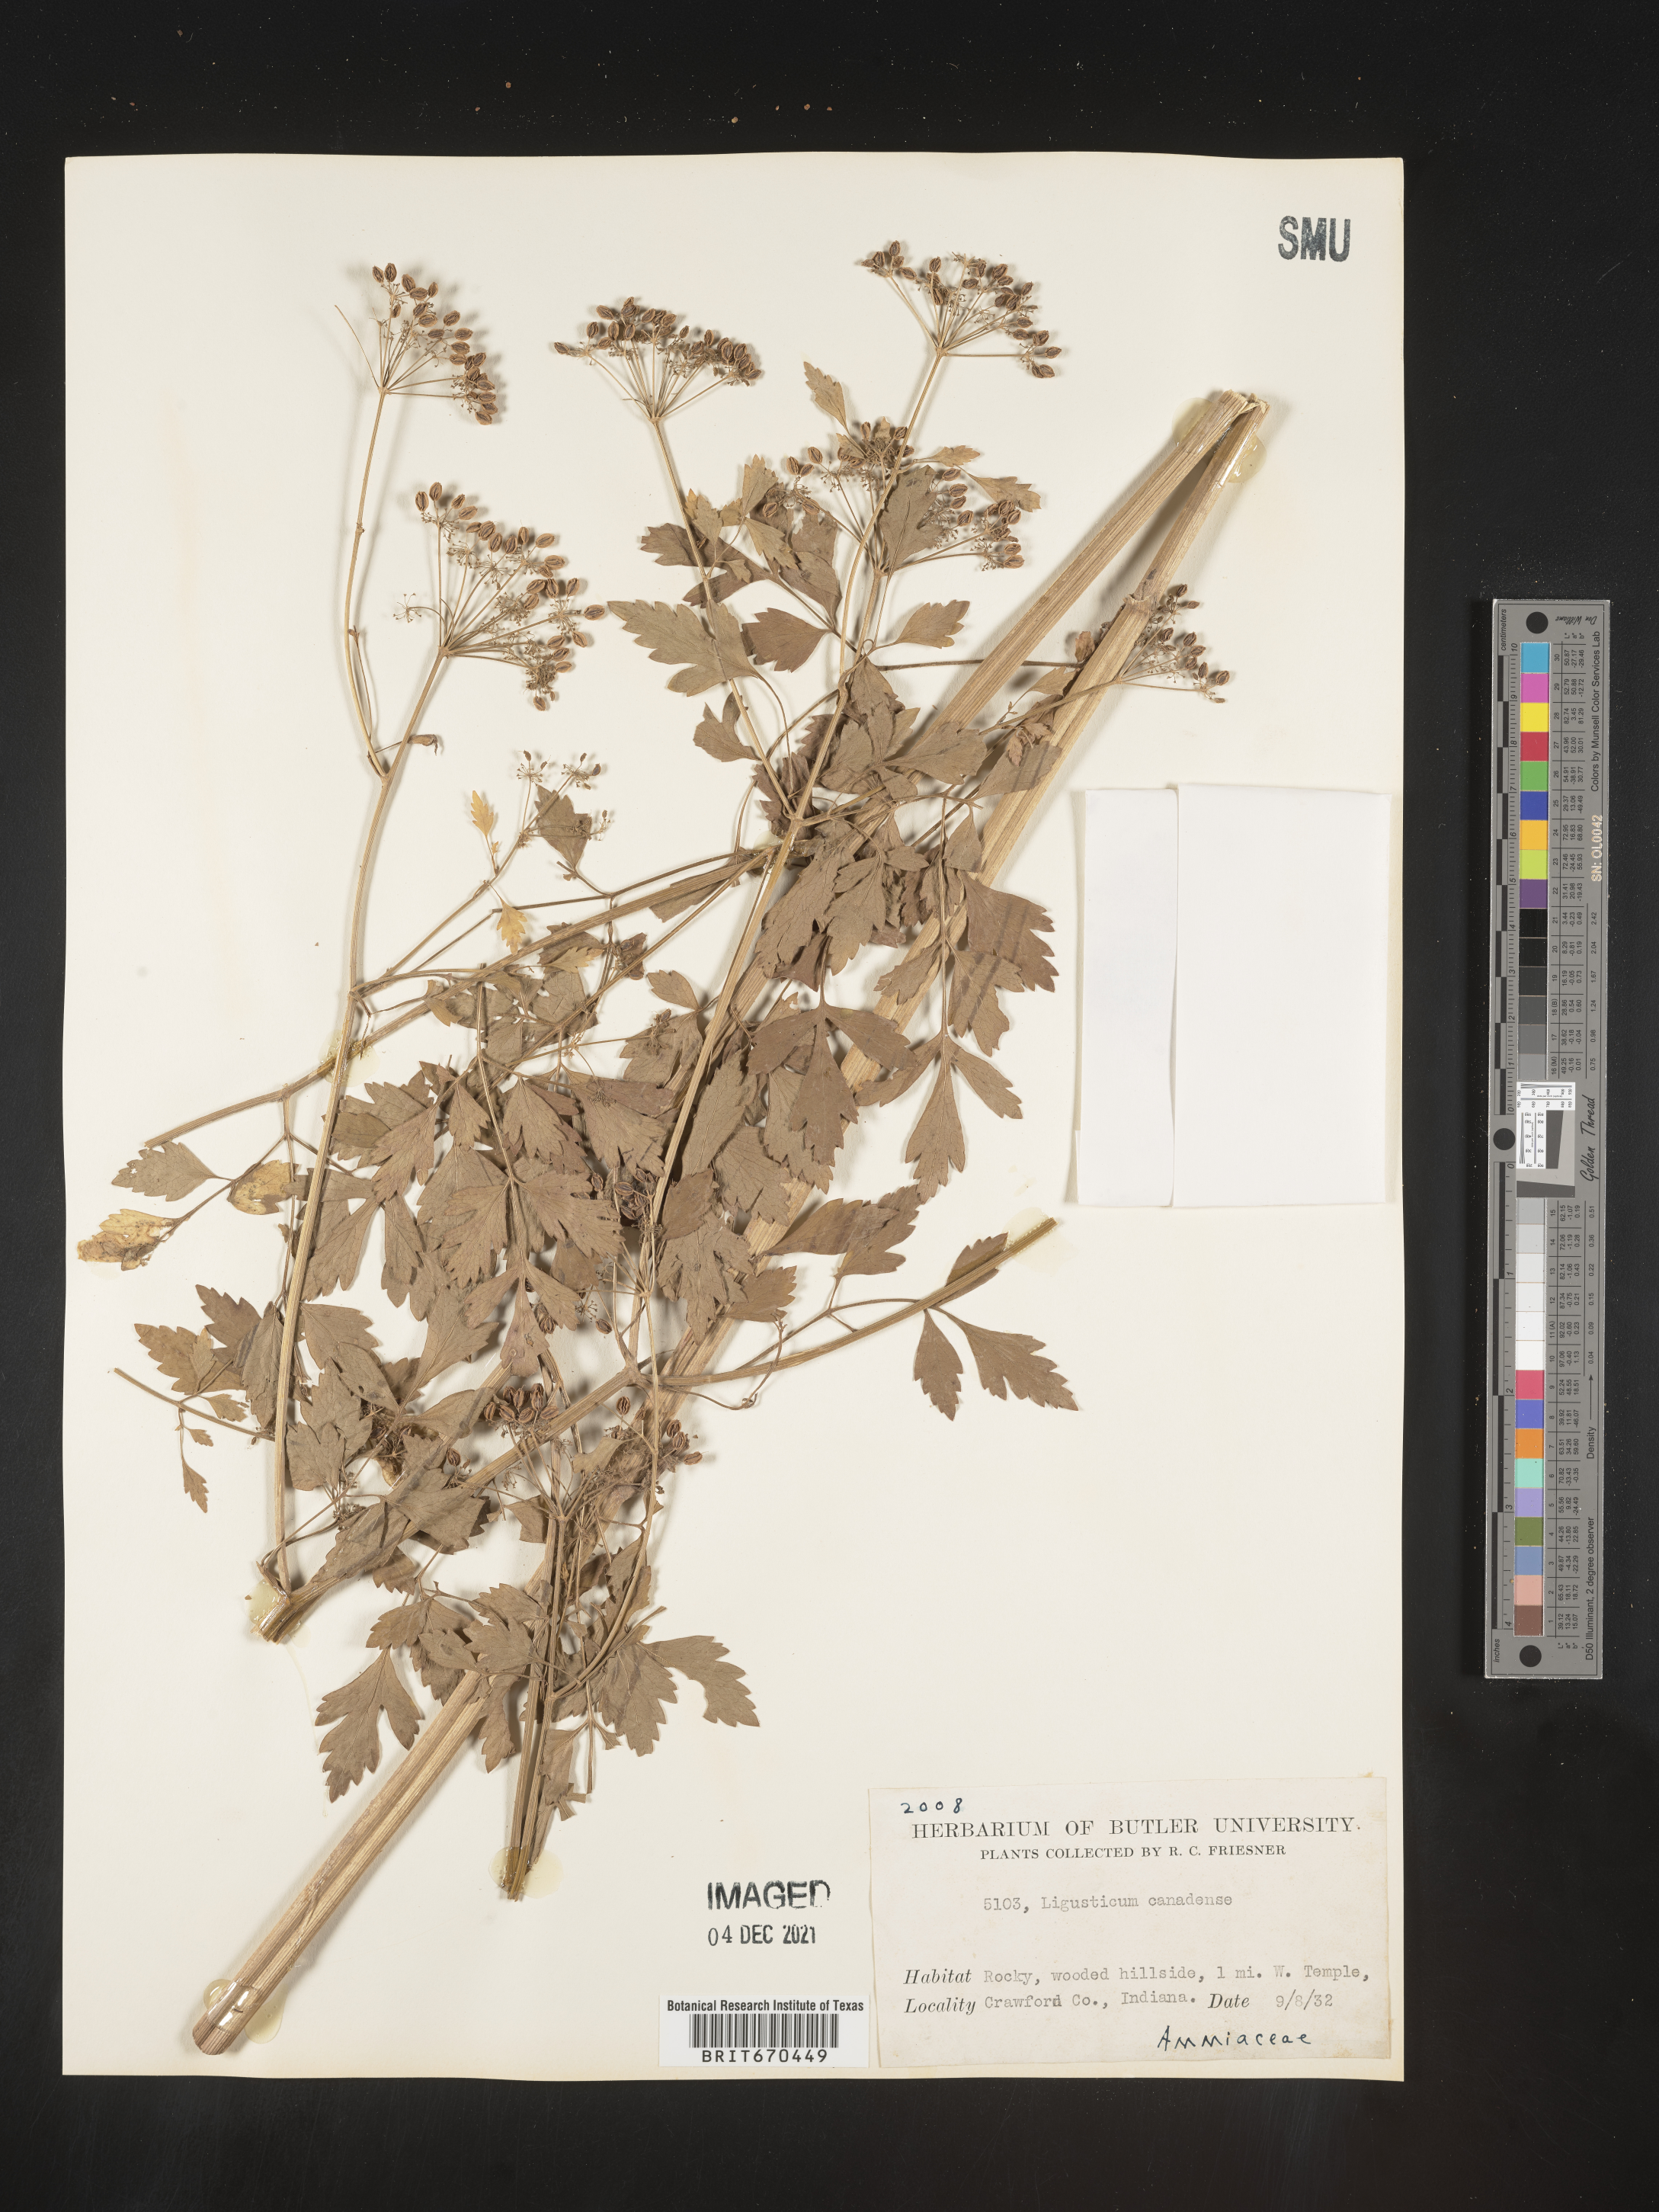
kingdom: Plantae
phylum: Tracheophyta
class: Magnoliopsida
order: Apiales
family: Apiaceae
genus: Ligusticum
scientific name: Ligusticum
